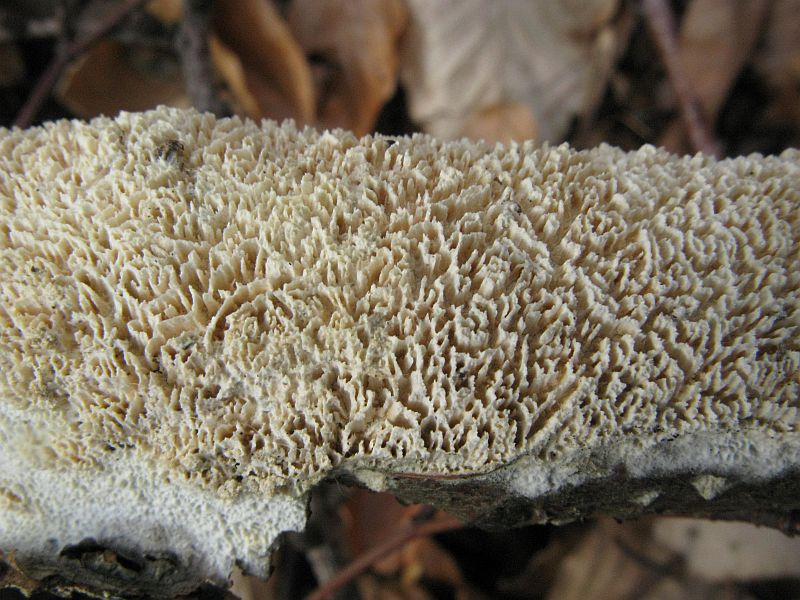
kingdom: Fungi
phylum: Basidiomycota
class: Agaricomycetes
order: Hymenochaetales
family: Schizoporaceae
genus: Schizopora
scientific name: Schizopora paradoxa
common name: hvid tandsvamp
